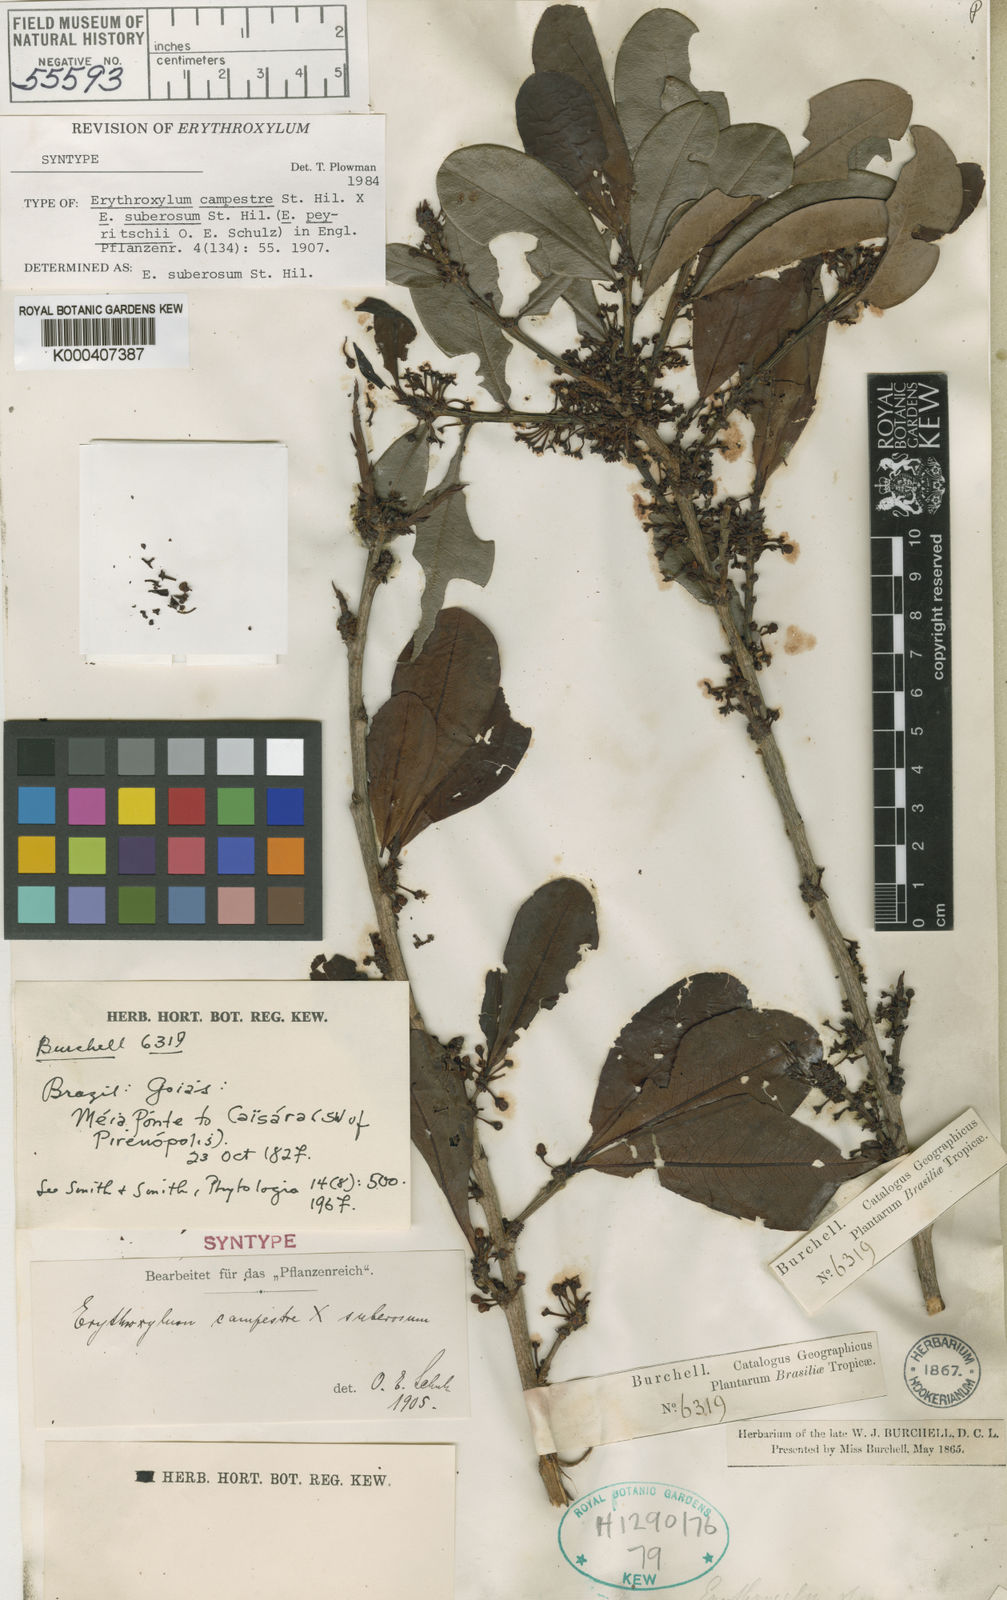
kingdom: Plantae
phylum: Tracheophyta
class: Magnoliopsida
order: Malpighiales
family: Erythroxylaceae
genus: Erythroxylum
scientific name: Erythroxylum suberosum
